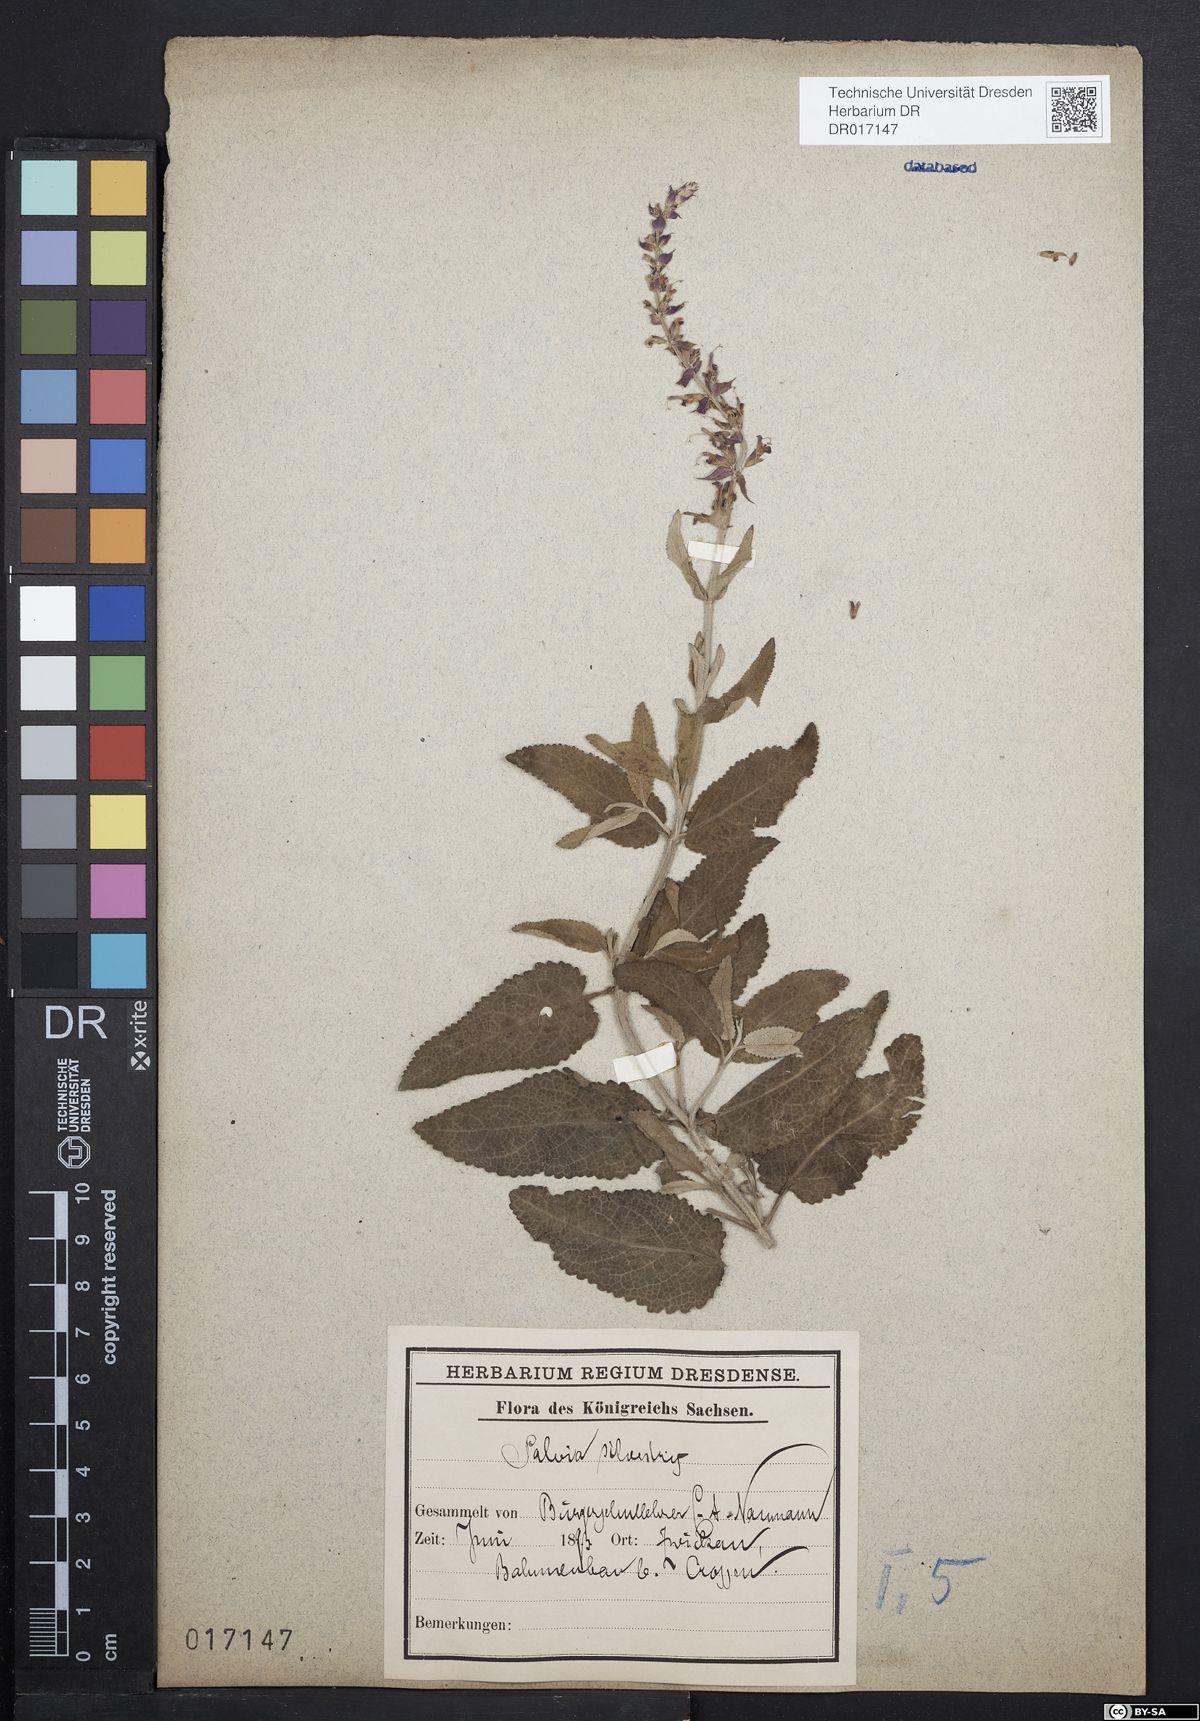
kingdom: Plantae
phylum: Tracheophyta
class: Magnoliopsida
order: Lamiales
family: Lamiaceae
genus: Salvia
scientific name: Salvia nemorosa
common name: Balkan clary
